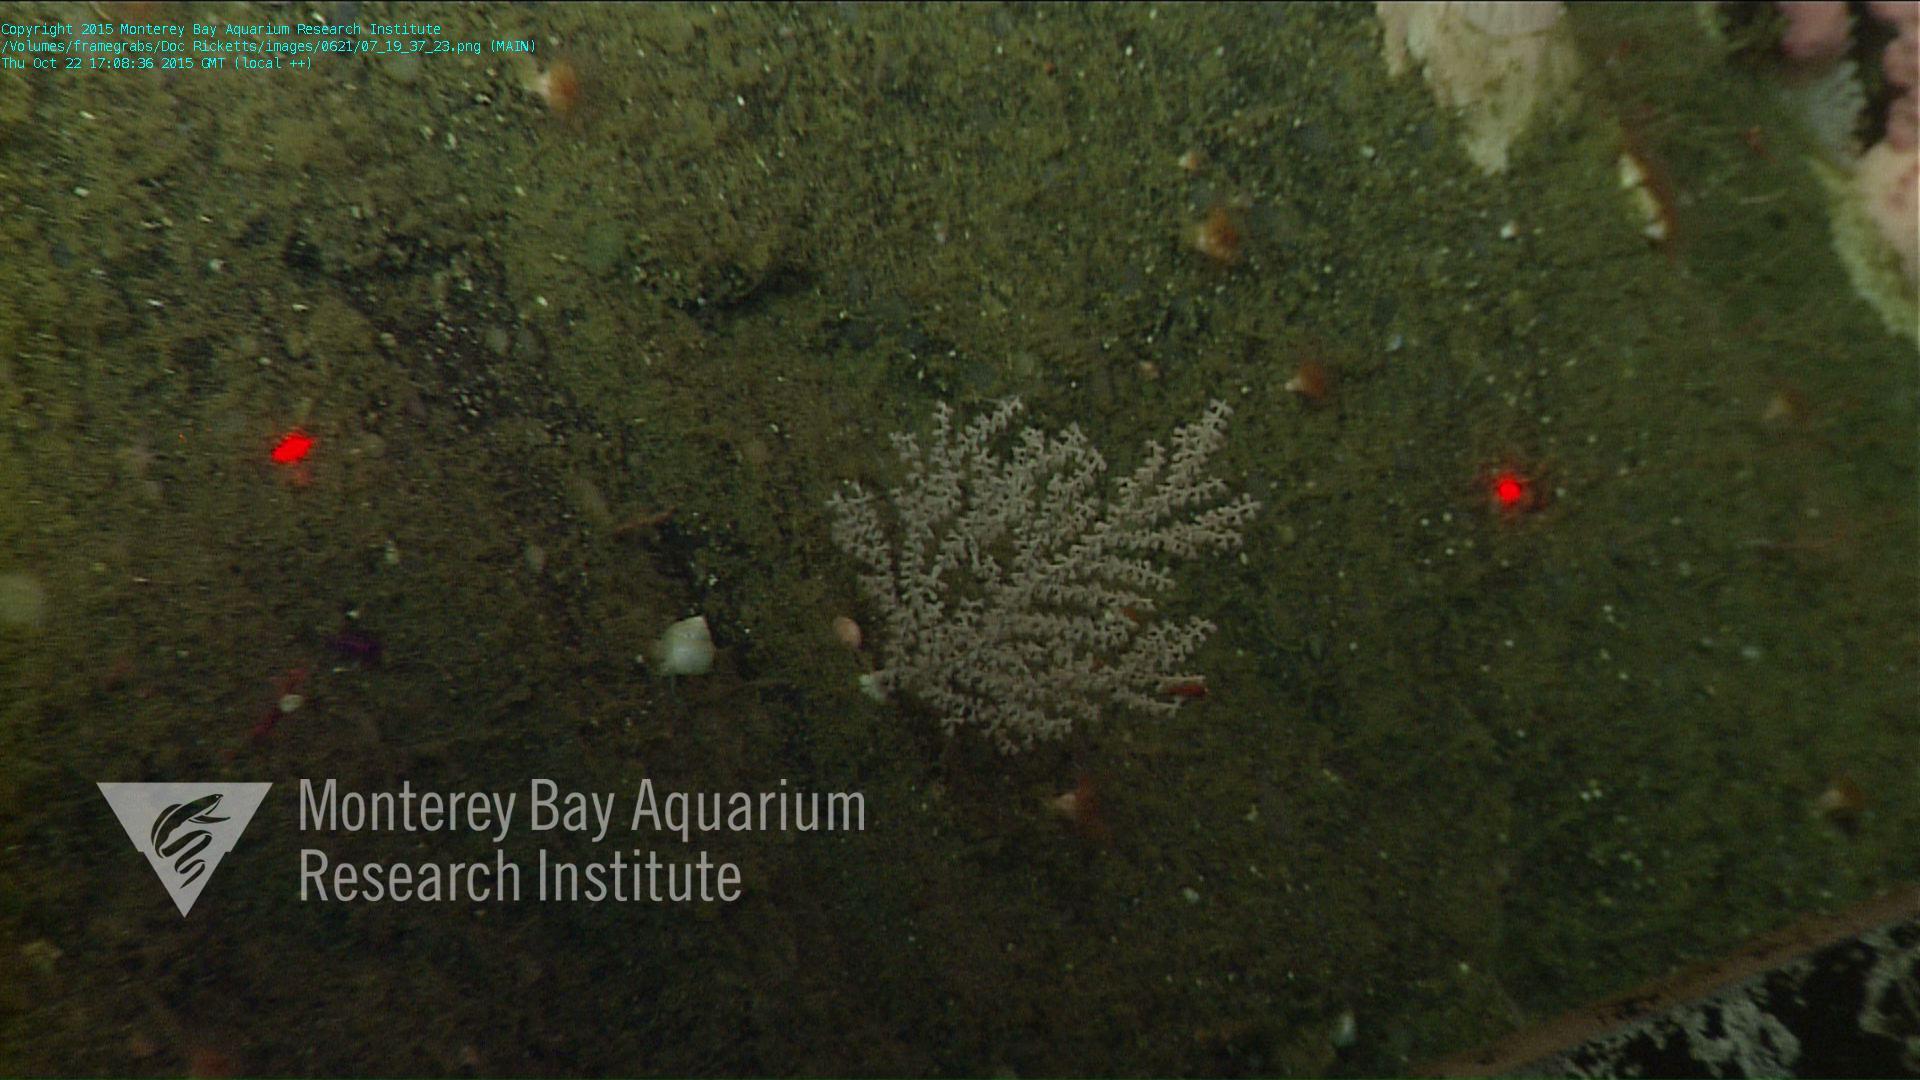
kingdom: Animalia
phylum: Cnidaria
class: Anthozoa
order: Scleralcyonacea
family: Primnoidae
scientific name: Primnoidae
